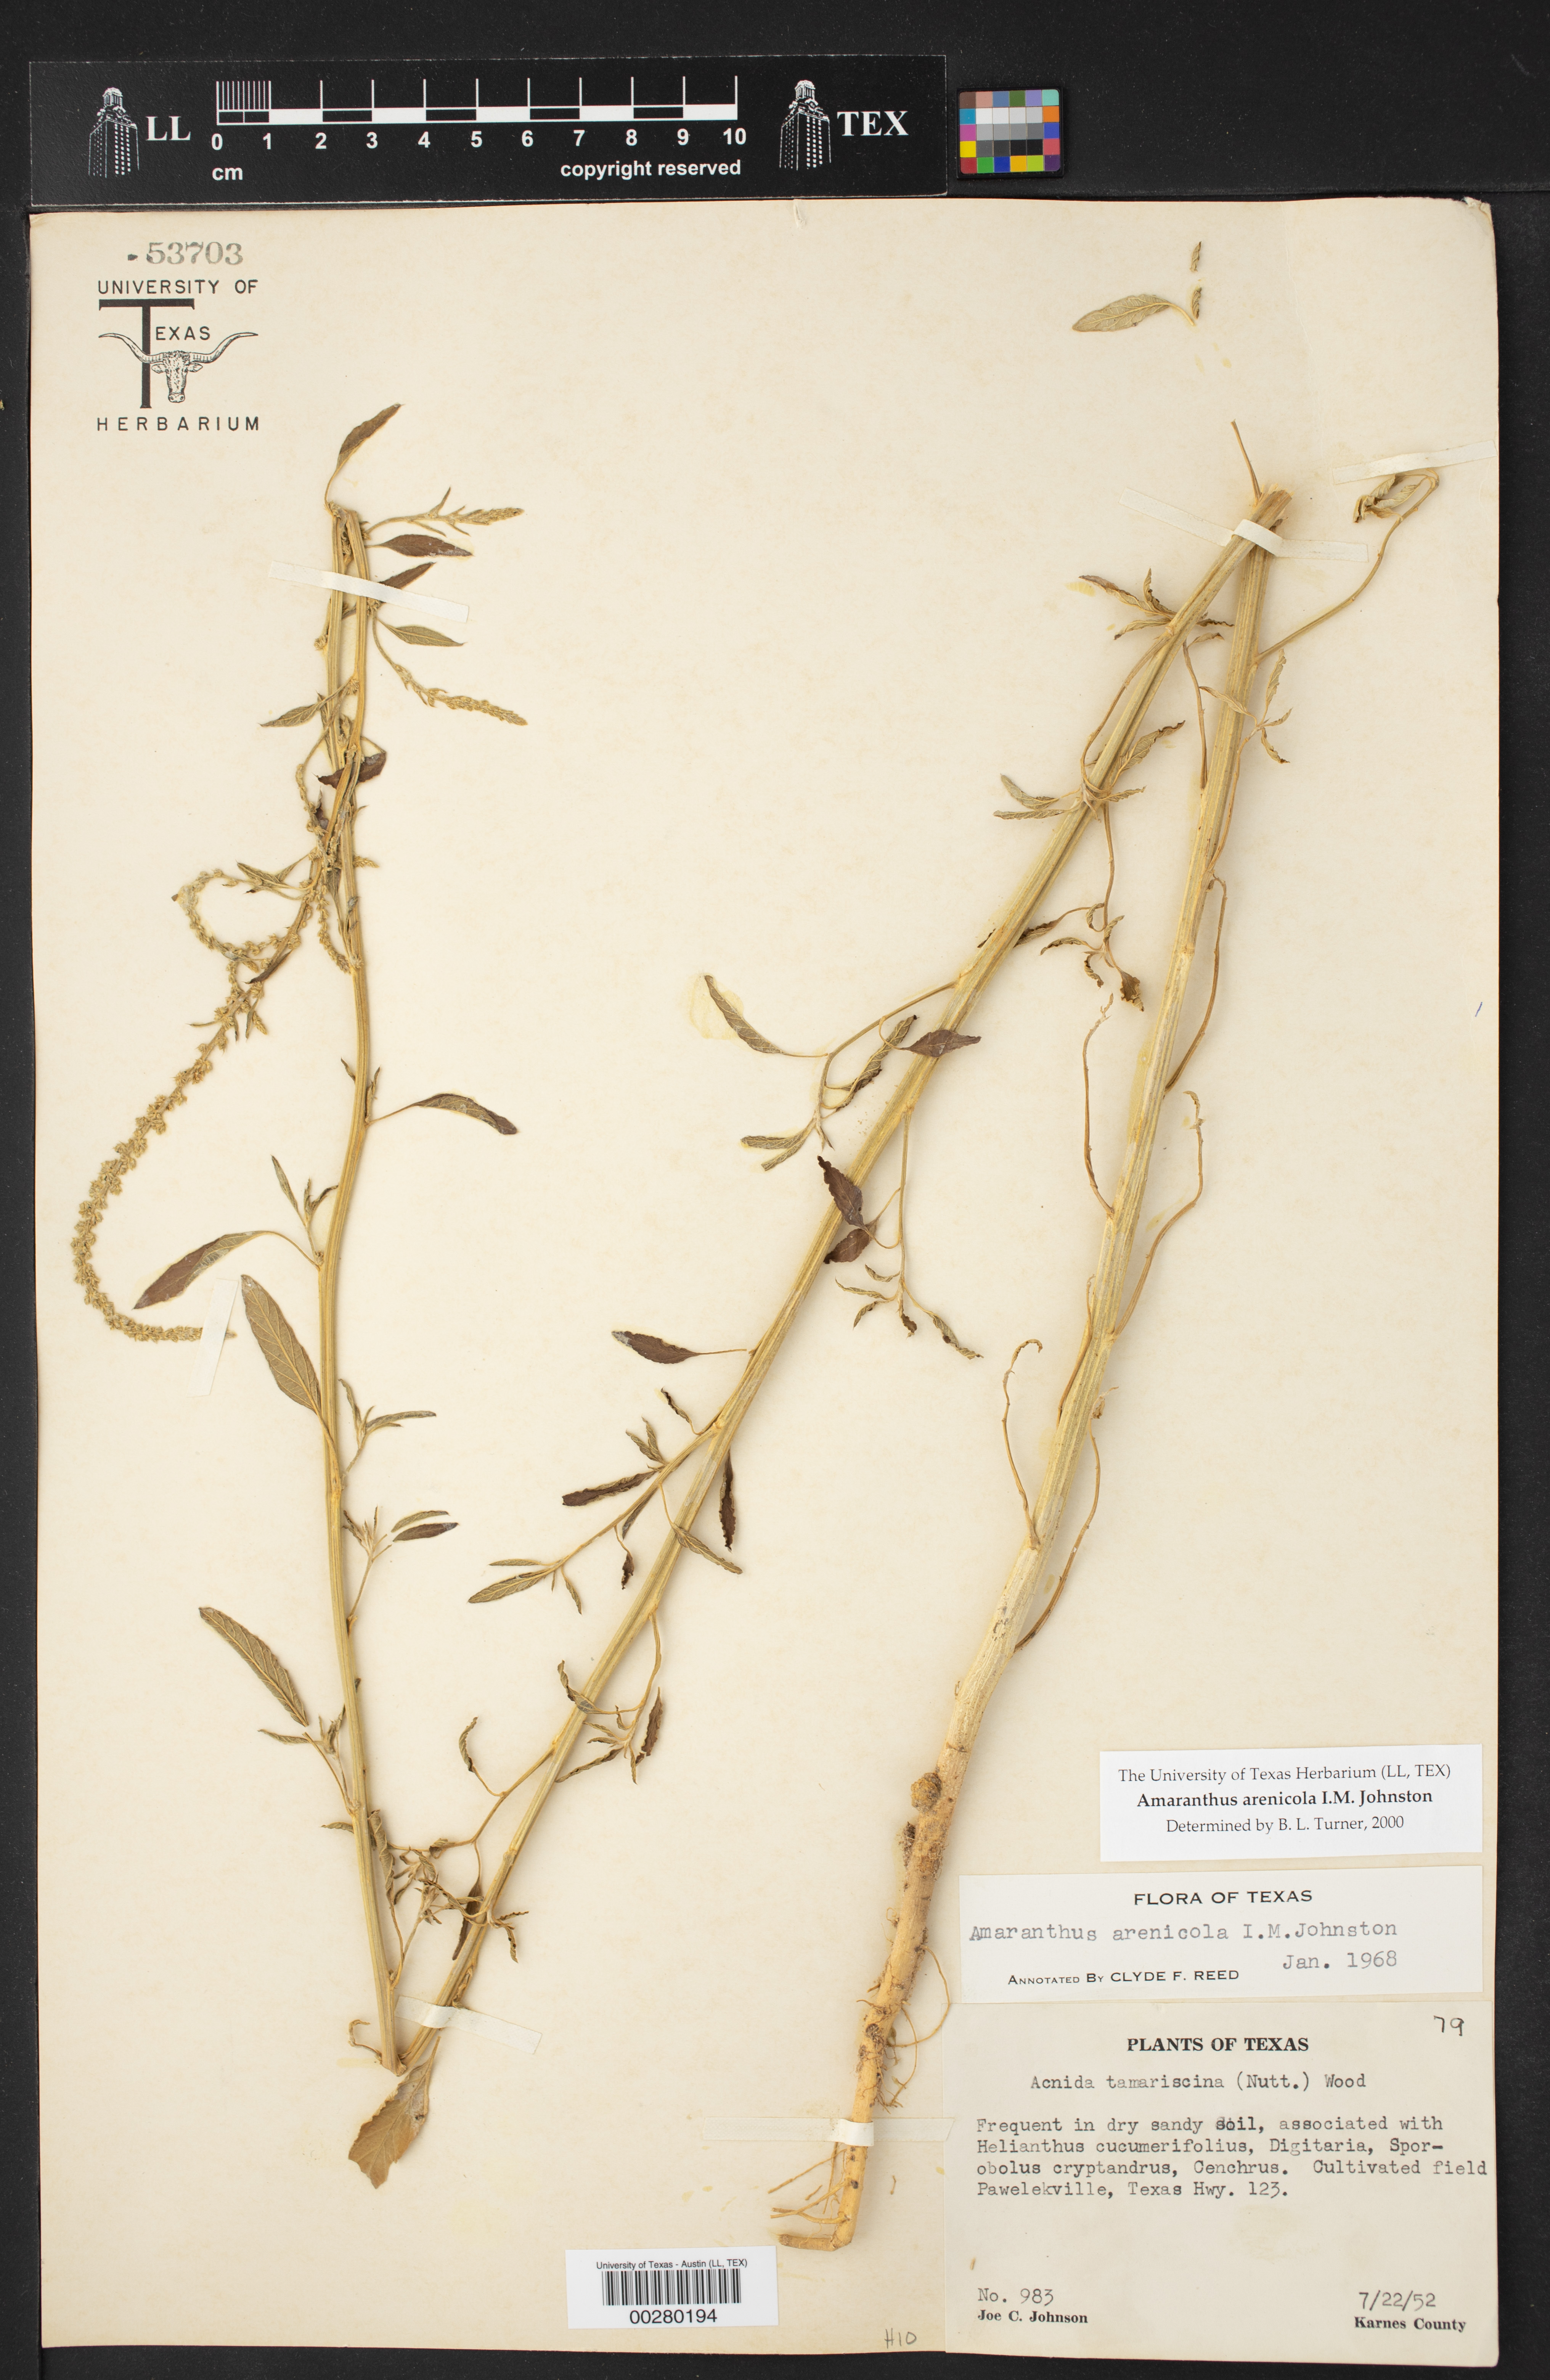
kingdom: Plantae
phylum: Tracheophyta
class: Magnoliopsida
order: Caryophyllales
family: Amaranthaceae
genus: Amaranthus
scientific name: Amaranthus arenicola
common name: Sandhills amaranth
